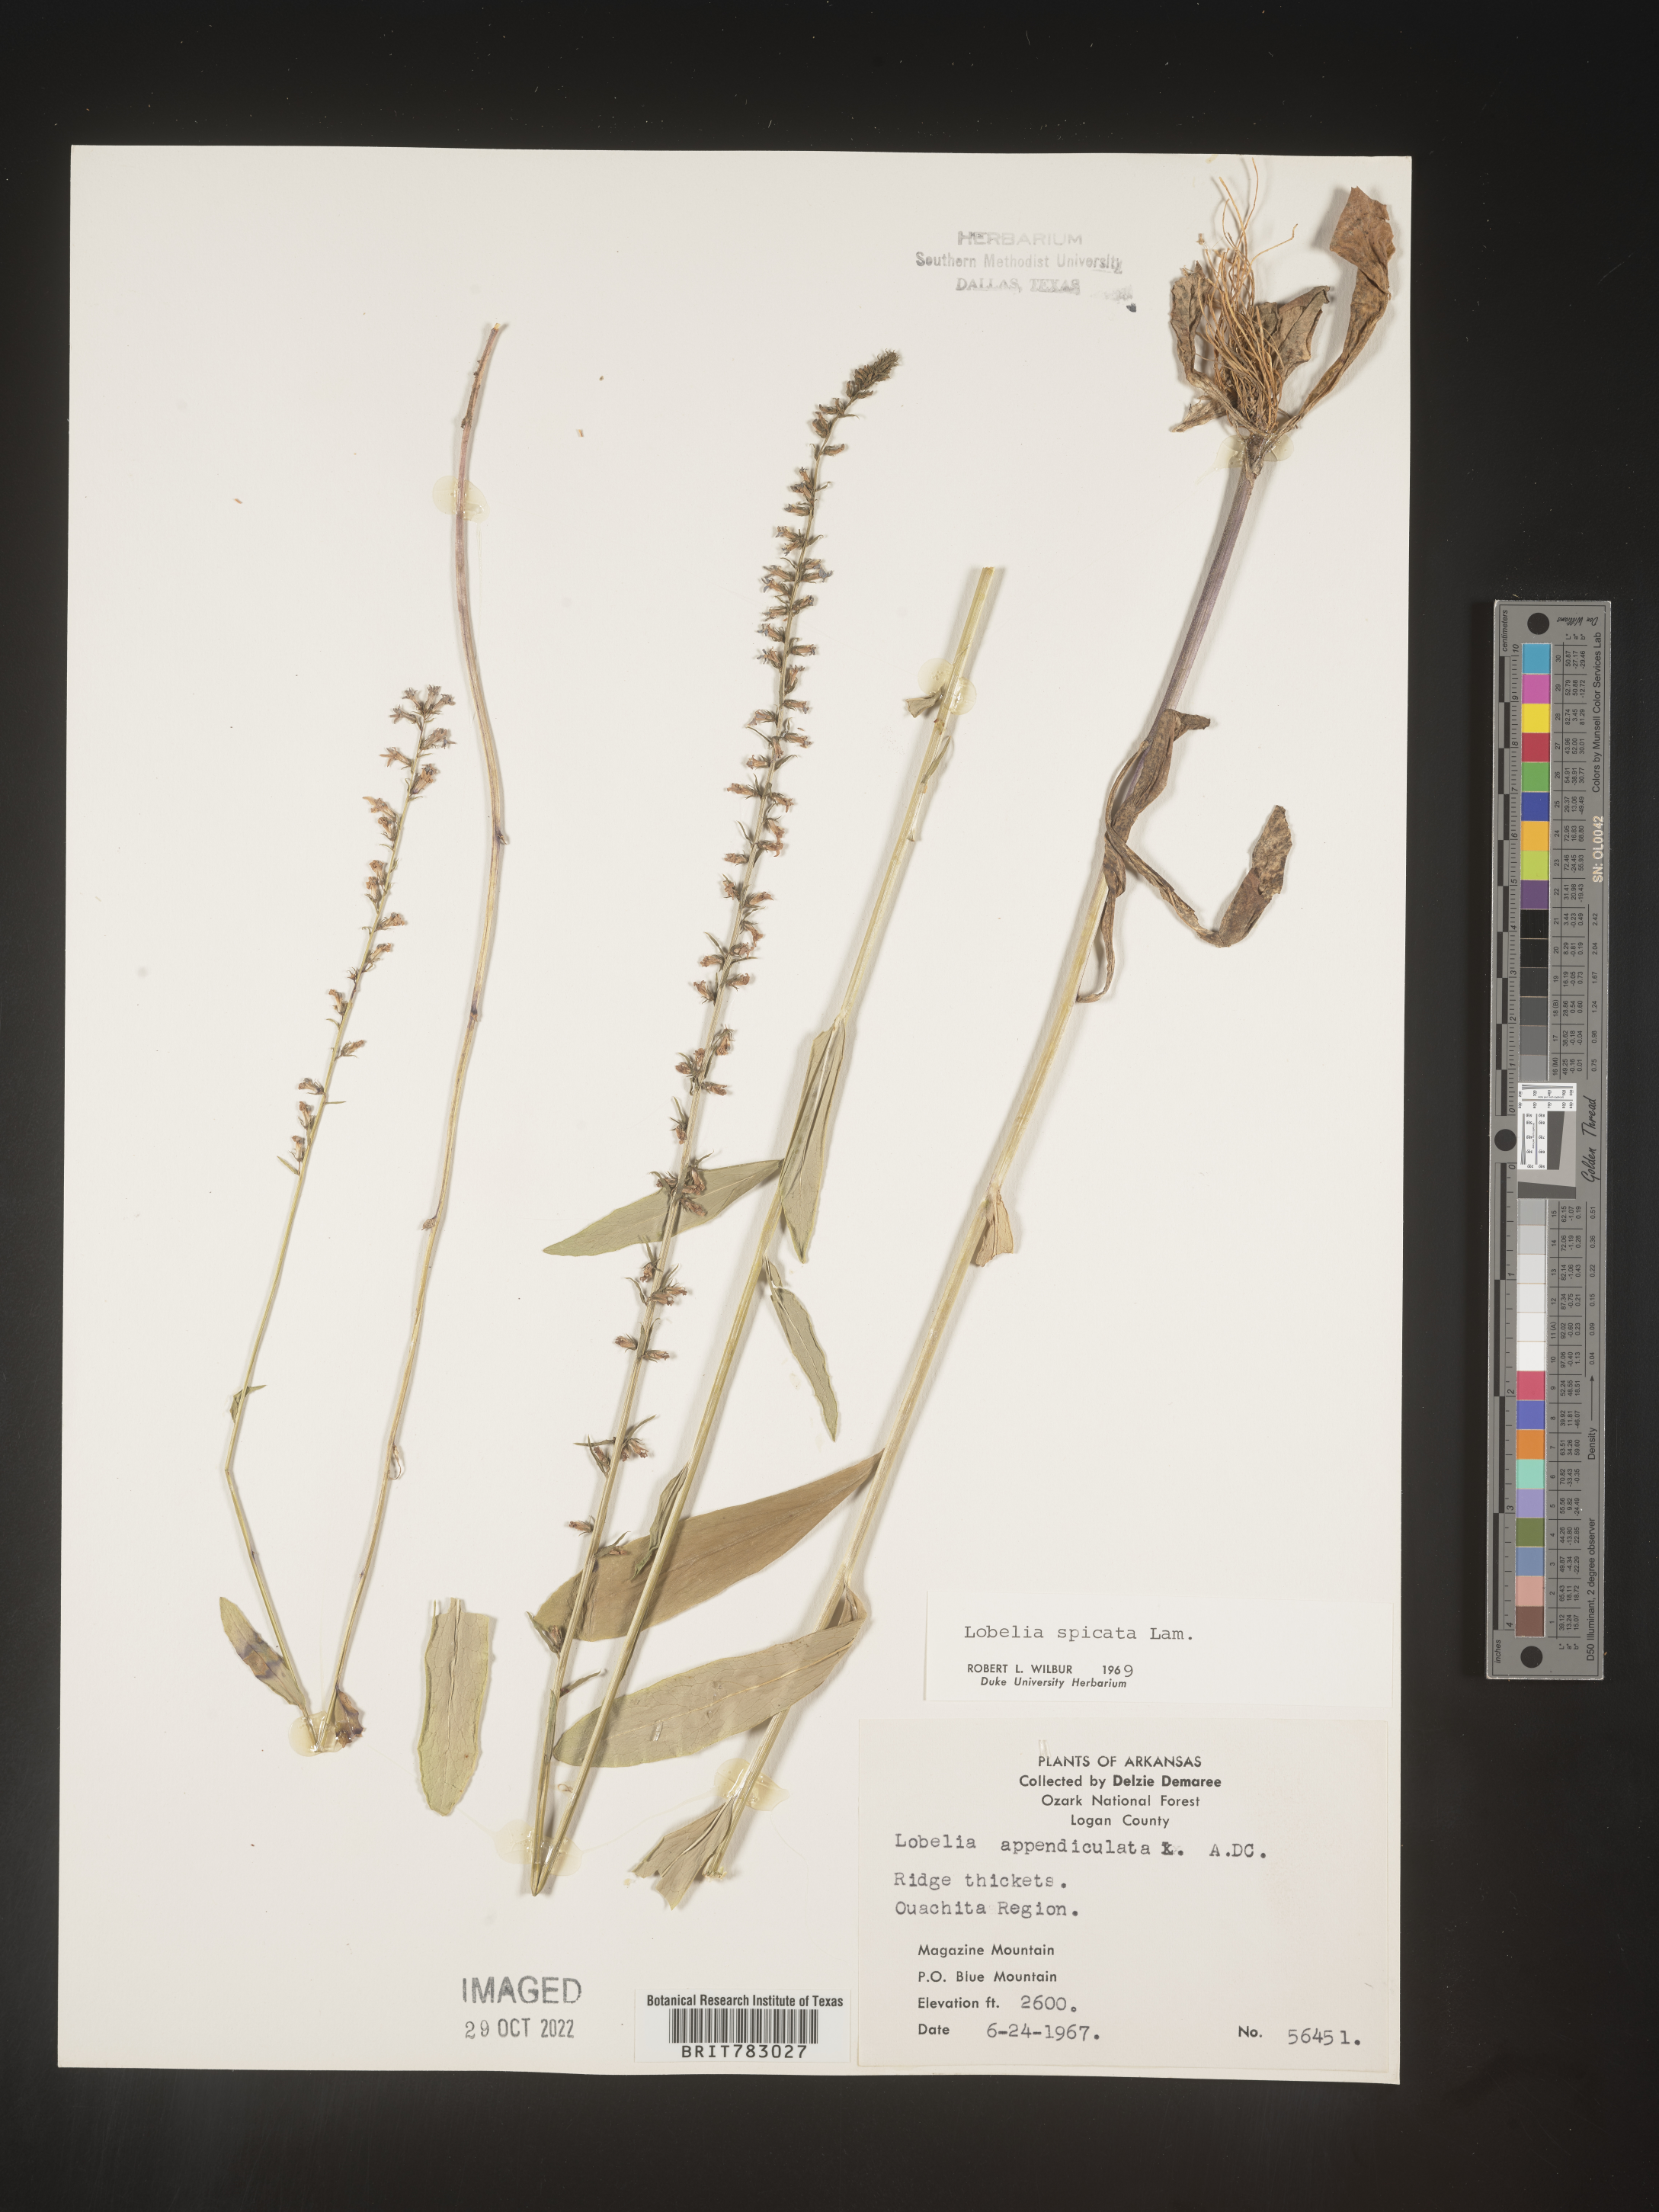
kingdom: Plantae
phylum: Tracheophyta
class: Magnoliopsida
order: Asterales
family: Campanulaceae
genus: Lobelia
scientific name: Lobelia spicata
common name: Pale-spike lobelia
